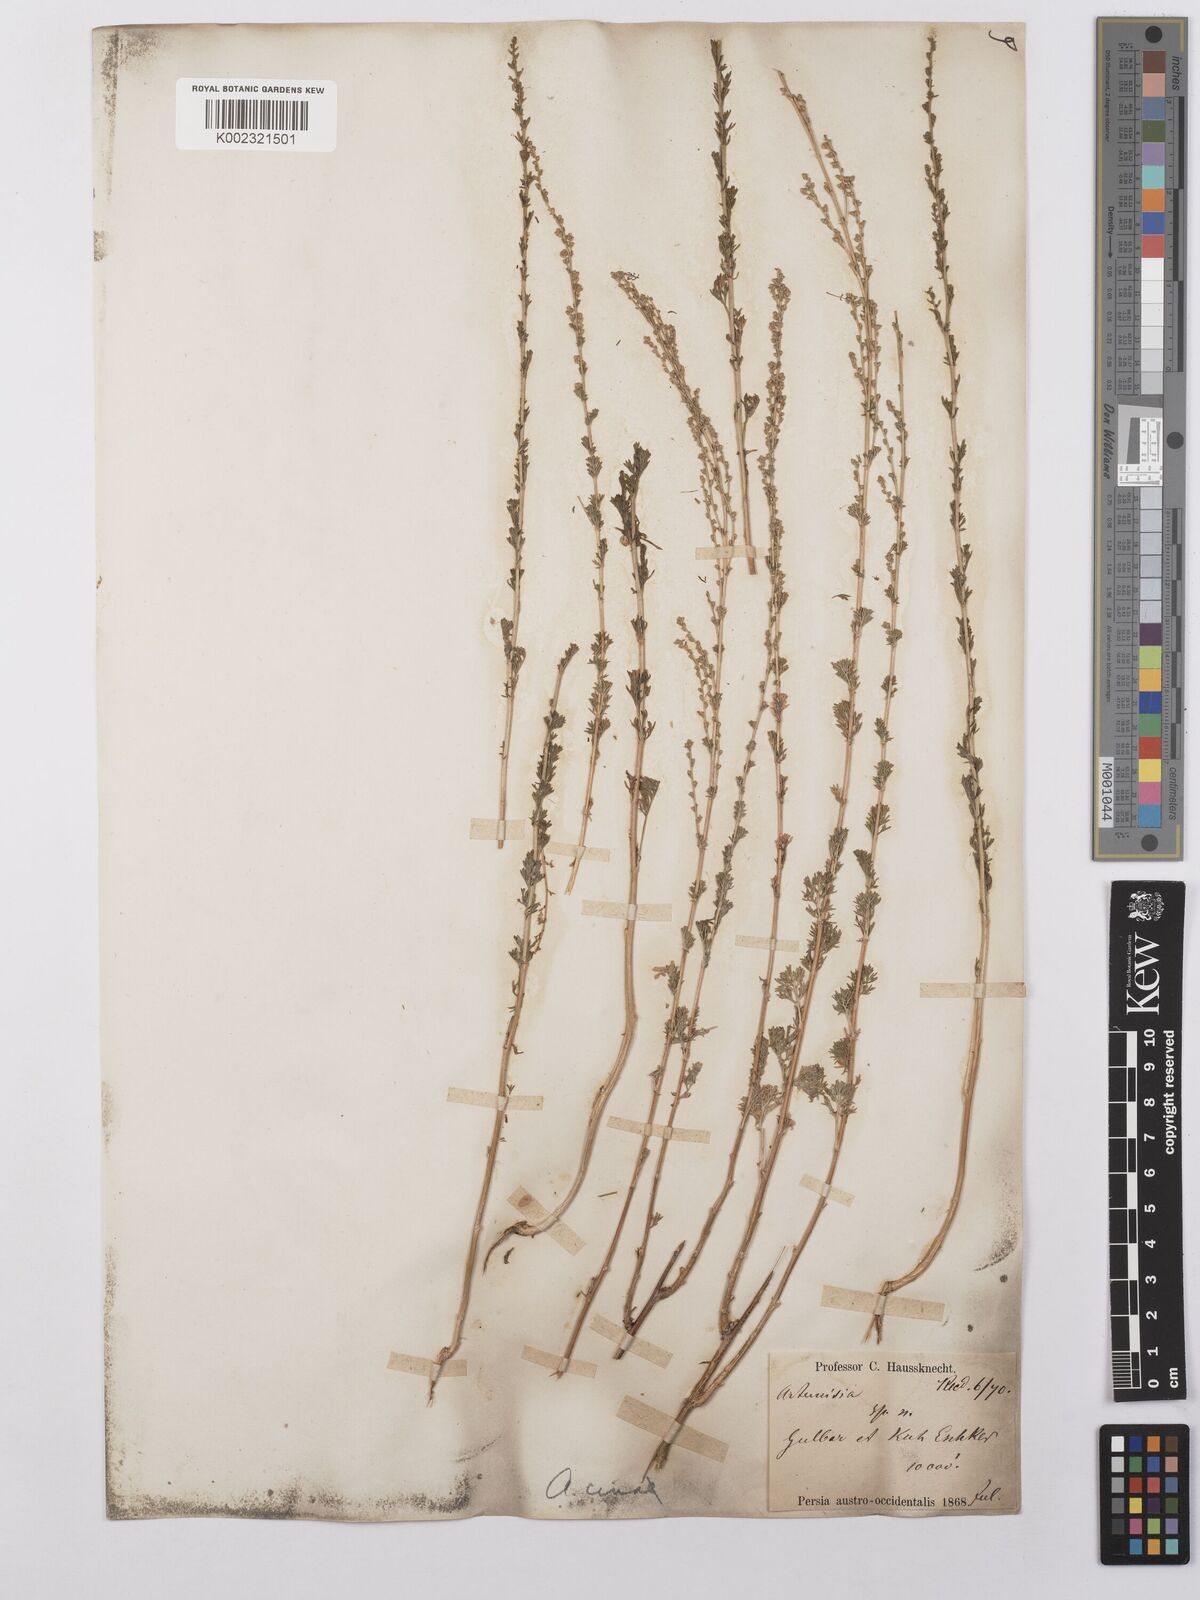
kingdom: Plantae
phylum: Tracheophyta
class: Magnoliopsida
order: Asterales
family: Asteraceae
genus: Artemisia
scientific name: Artemisia cina
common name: Levant wormseed
